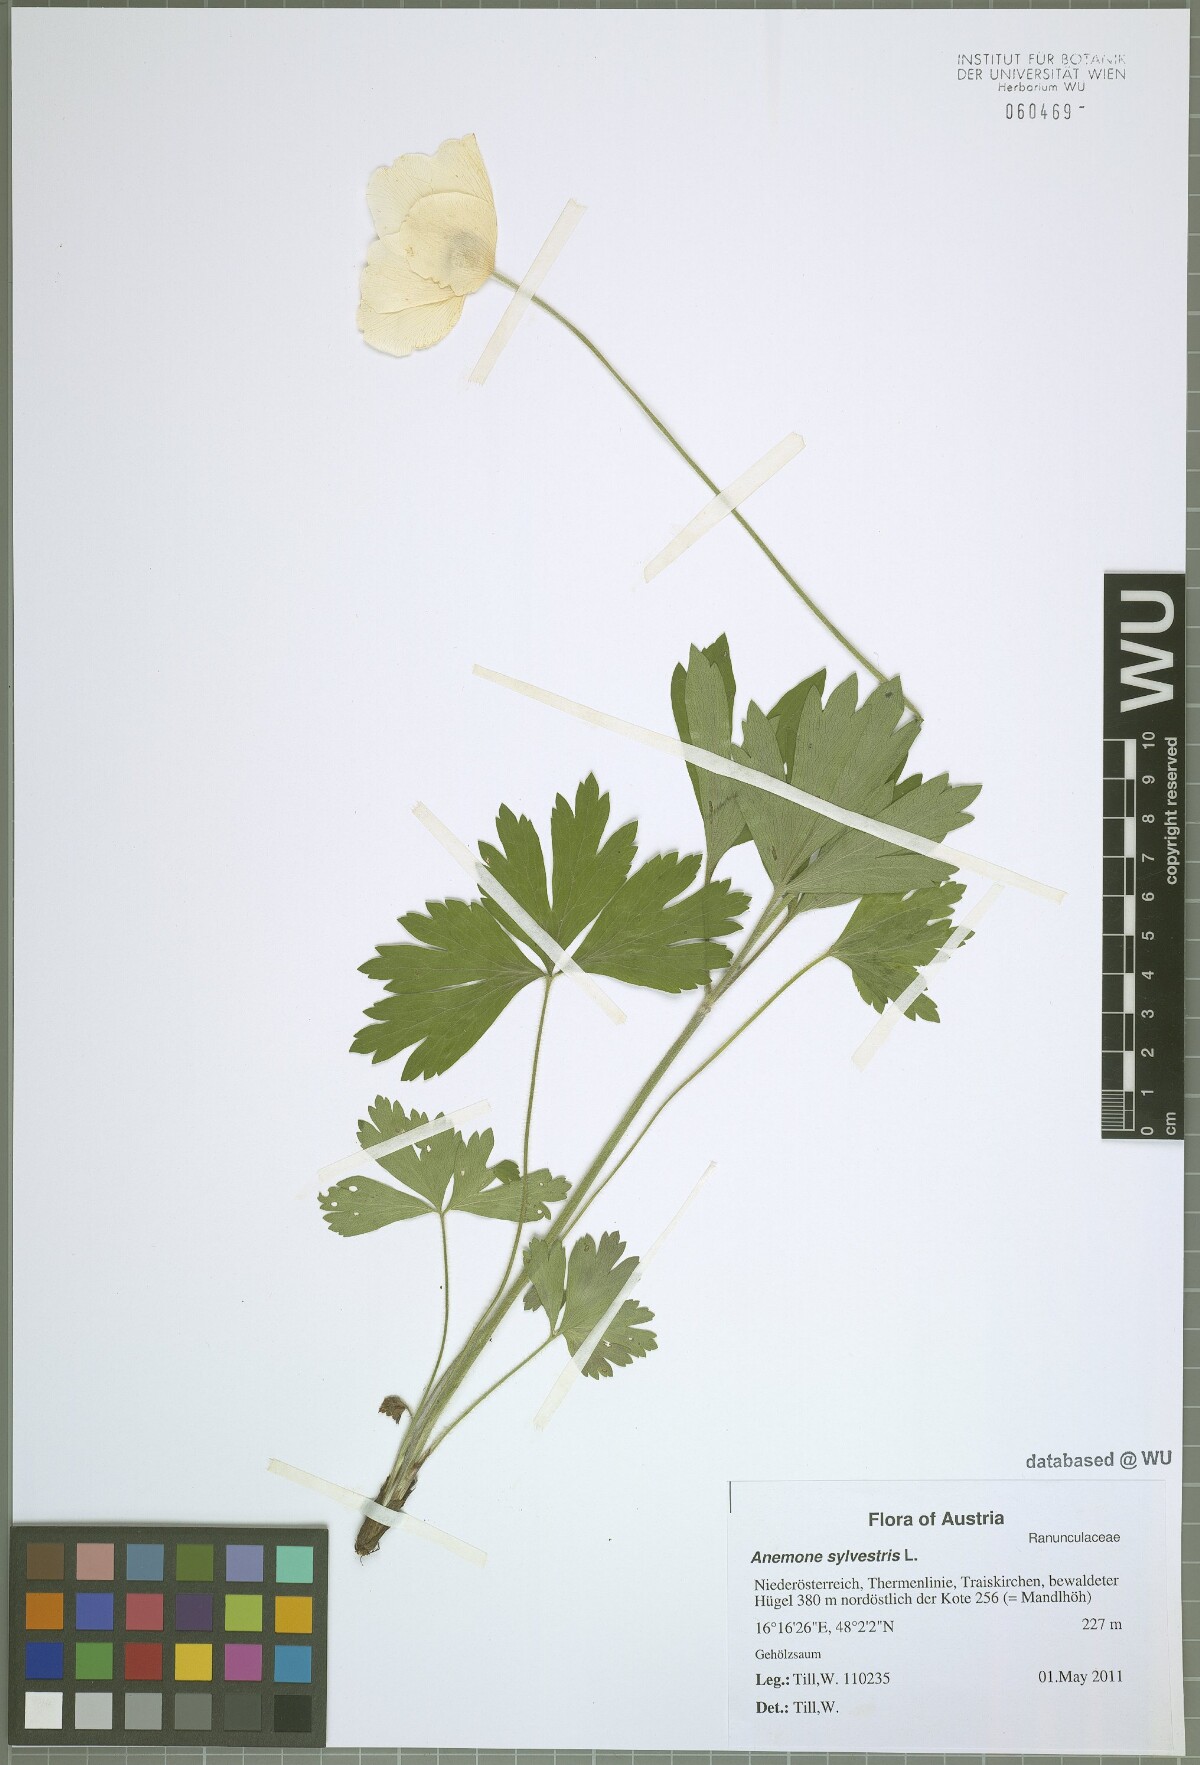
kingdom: Plantae
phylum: Tracheophyta
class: Magnoliopsida
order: Ranunculales
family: Ranunculaceae
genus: Anemone
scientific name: Anemone sylvestris
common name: Snowdrop anemone
